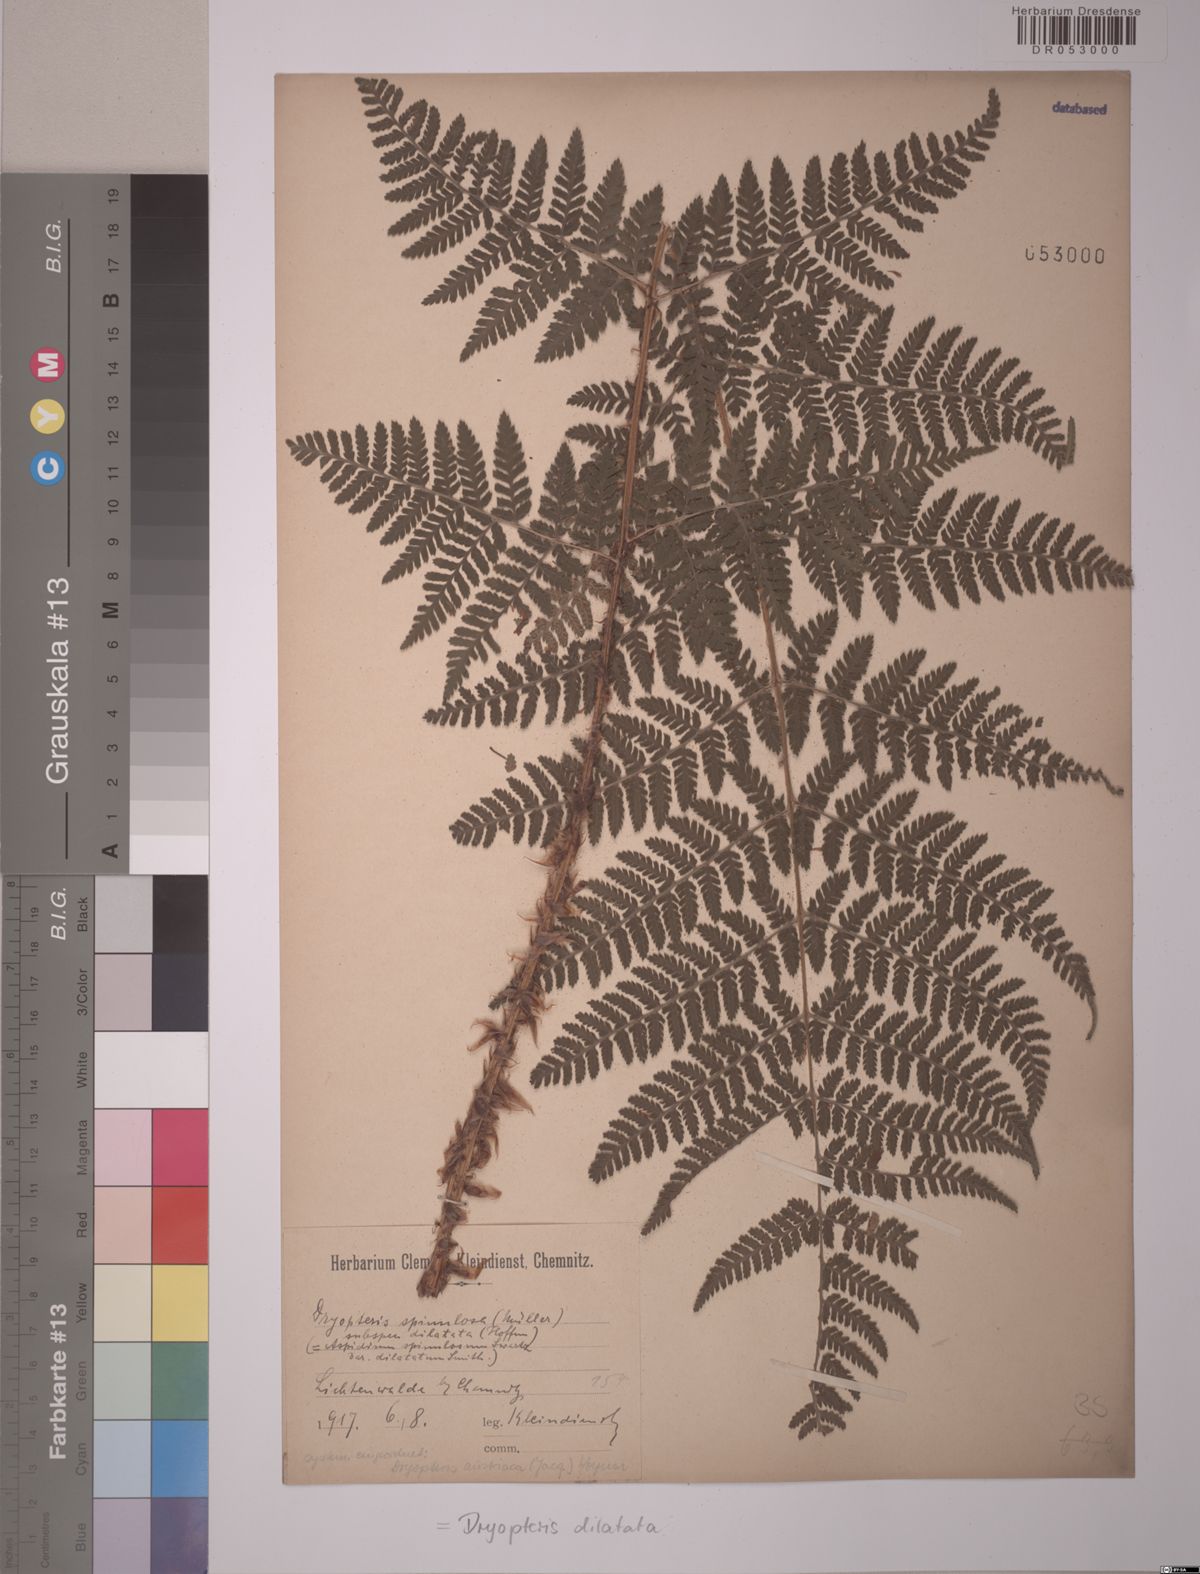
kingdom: Plantae
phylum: Tracheophyta
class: Polypodiopsida
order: Polypodiales
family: Dryopteridaceae
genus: Dryopteris
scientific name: Dryopteris dilatata
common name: Broad buckler-fern
